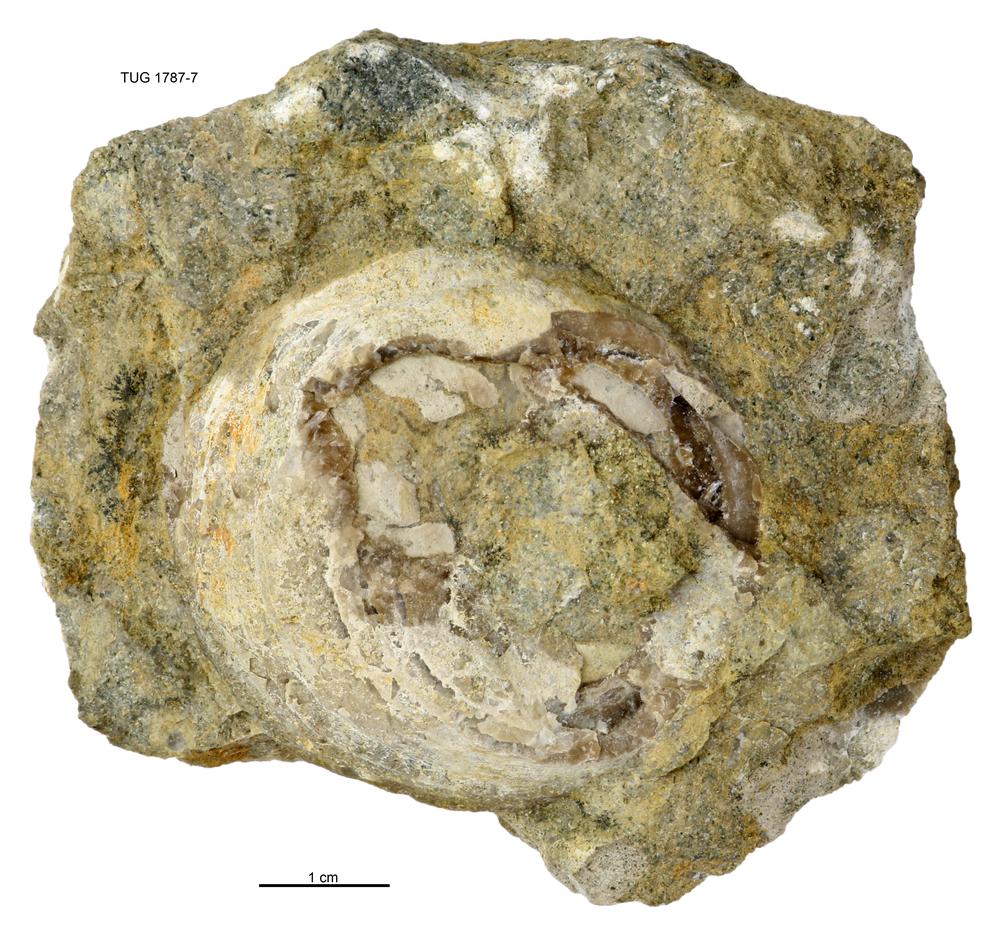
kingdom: Animalia
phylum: Mollusca
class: Monoplacophora
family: Metoptomatidae
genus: Metoptoma
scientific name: Metoptoma
